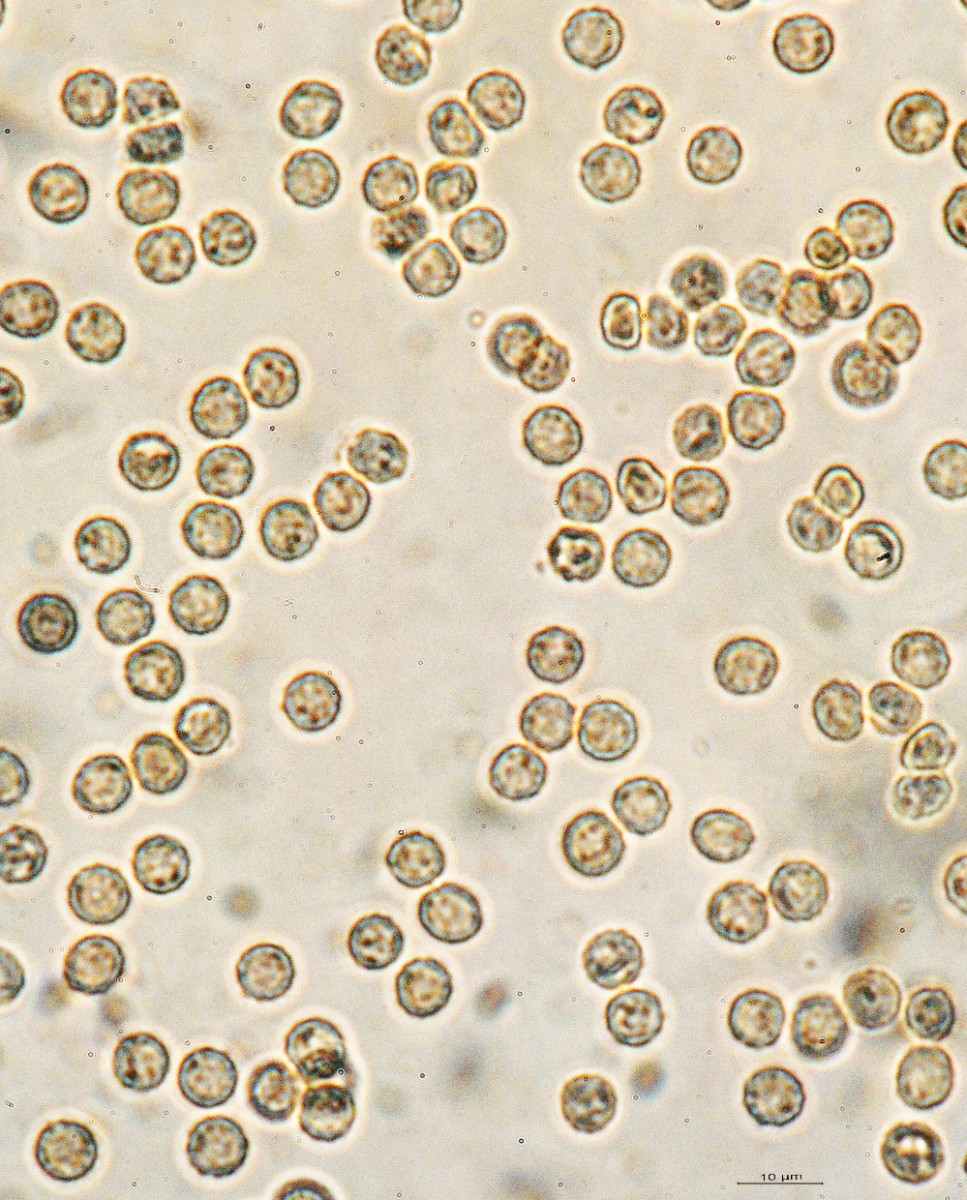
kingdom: Protozoa
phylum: Mycetozoa
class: Myxomycetes
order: Cribrariales
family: Tubiferaceae
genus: Tubifera
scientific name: Tubifera ferruginosa
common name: kanel-støvrør
